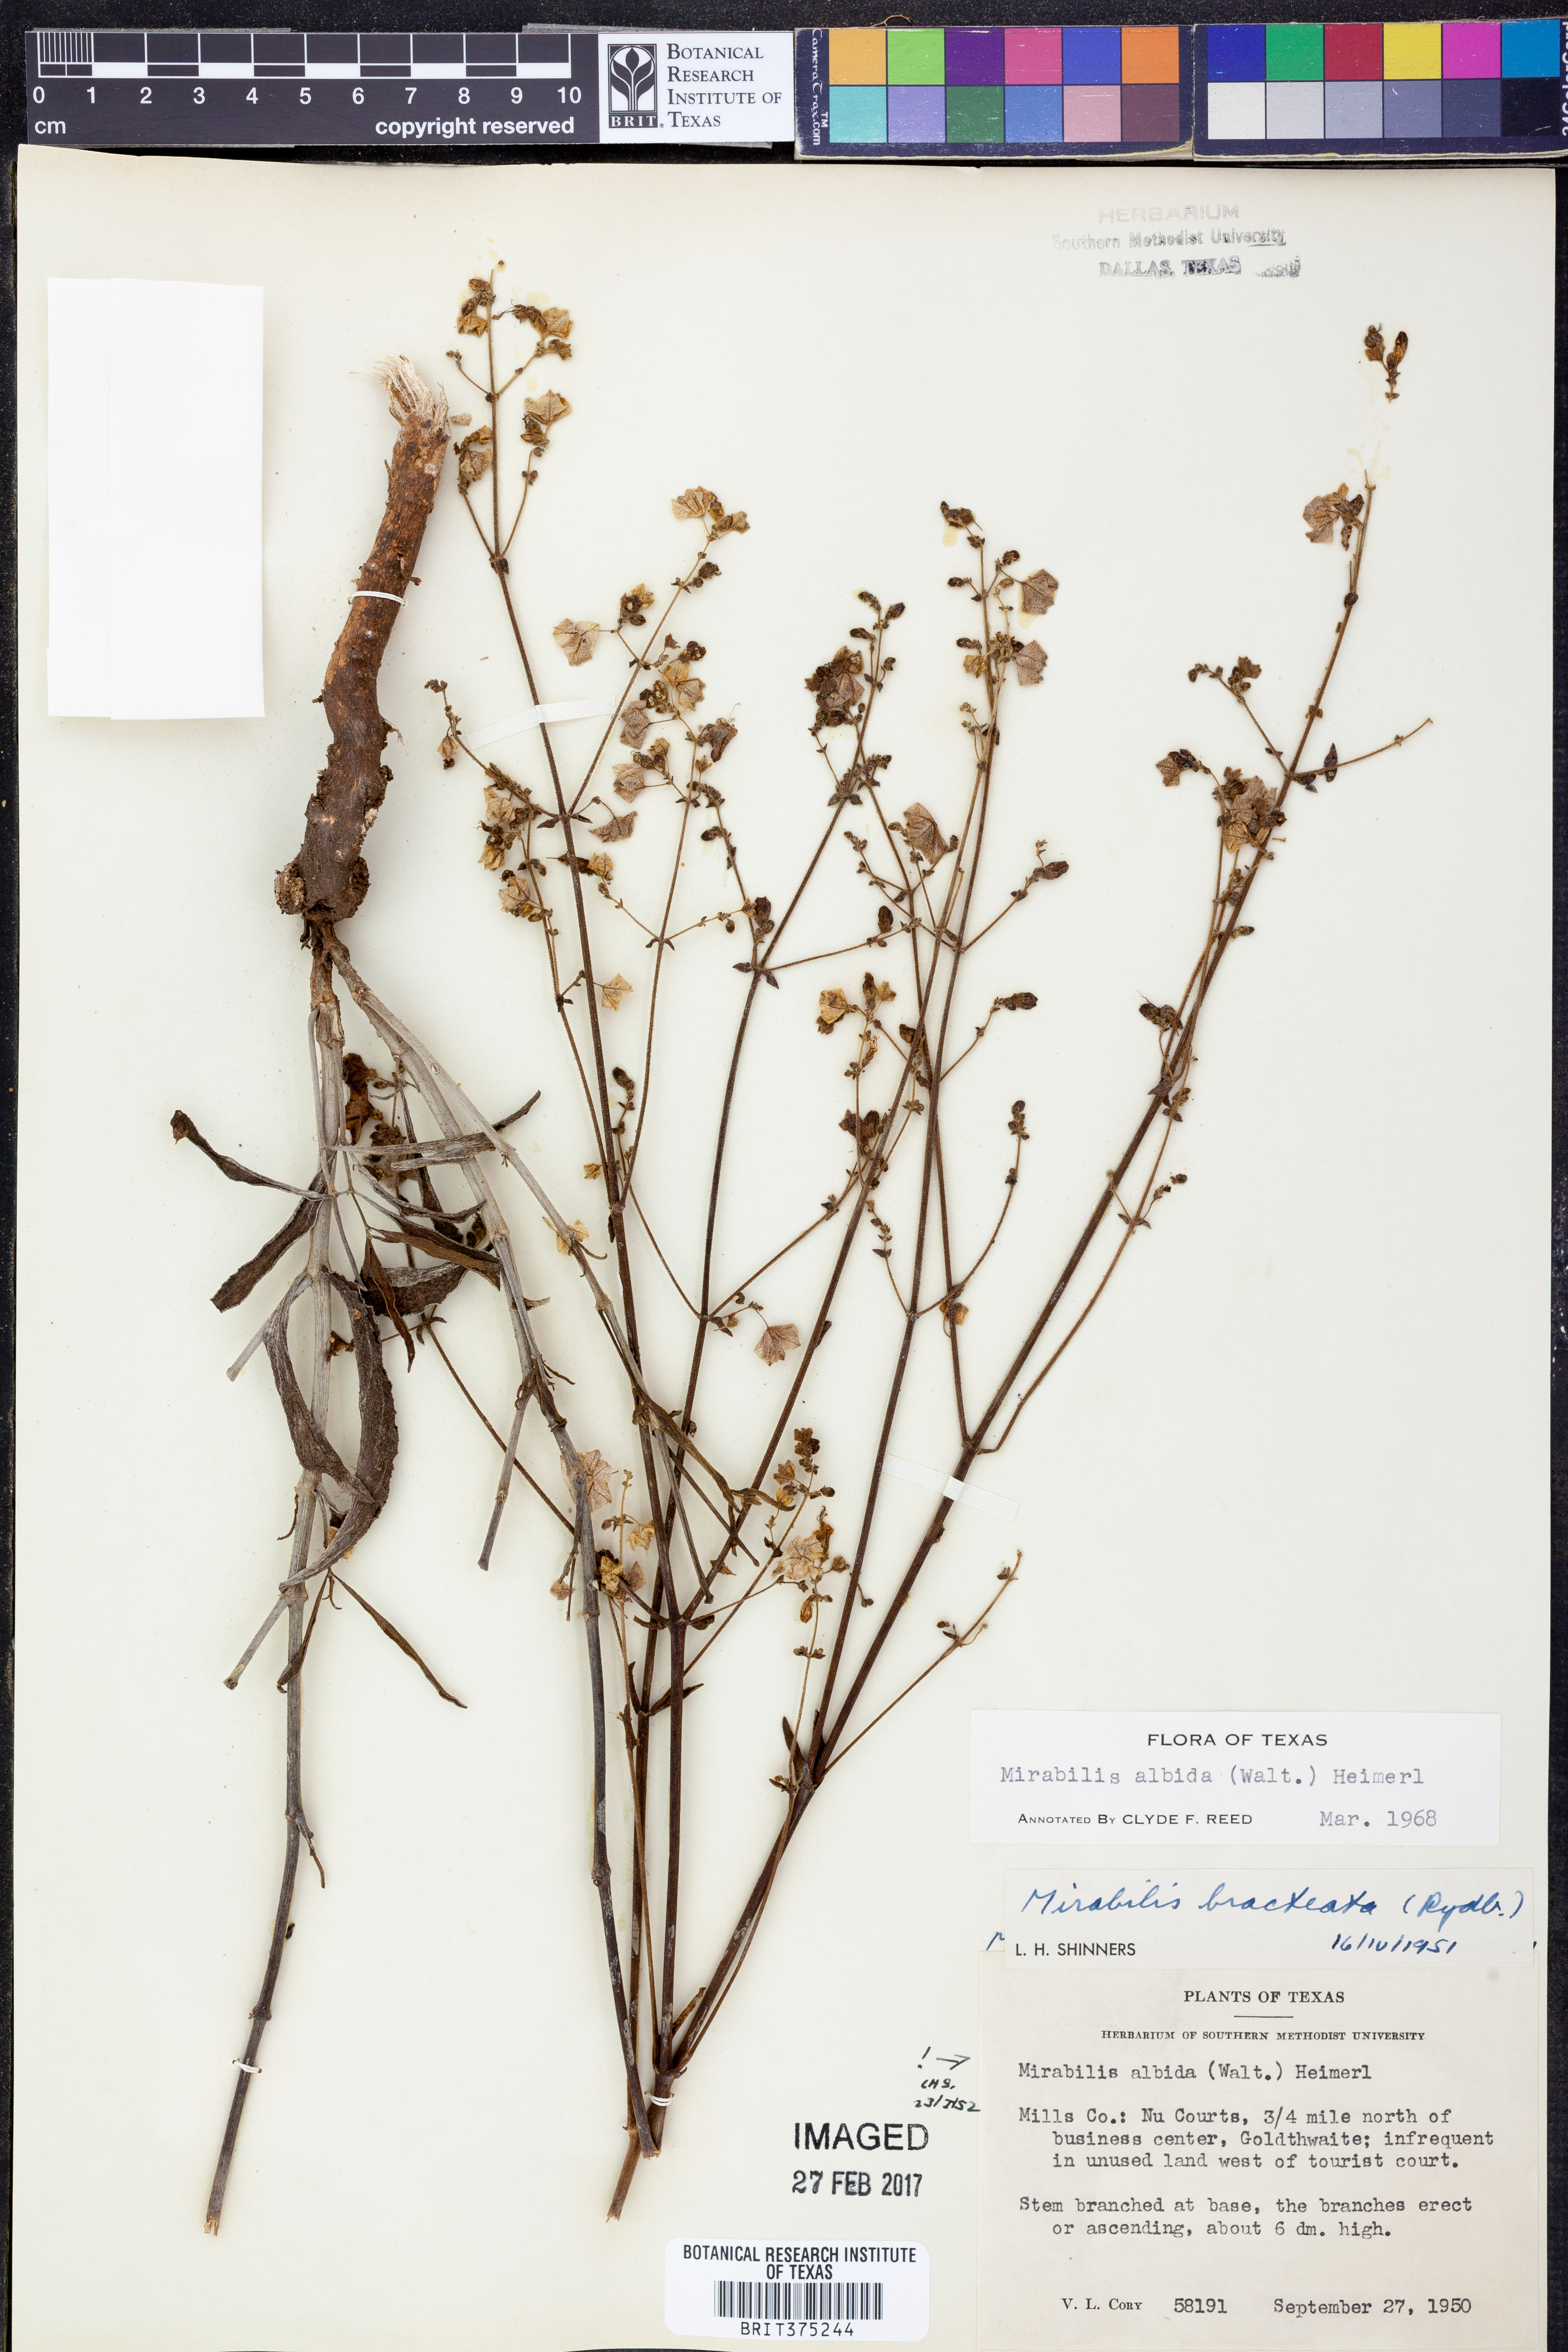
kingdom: Plantae
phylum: Tracheophyta
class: Magnoliopsida
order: Caryophyllales
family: Nyctaginaceae
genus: Mirabilis
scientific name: Mirabilis albida
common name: Hairy four-o'clock
